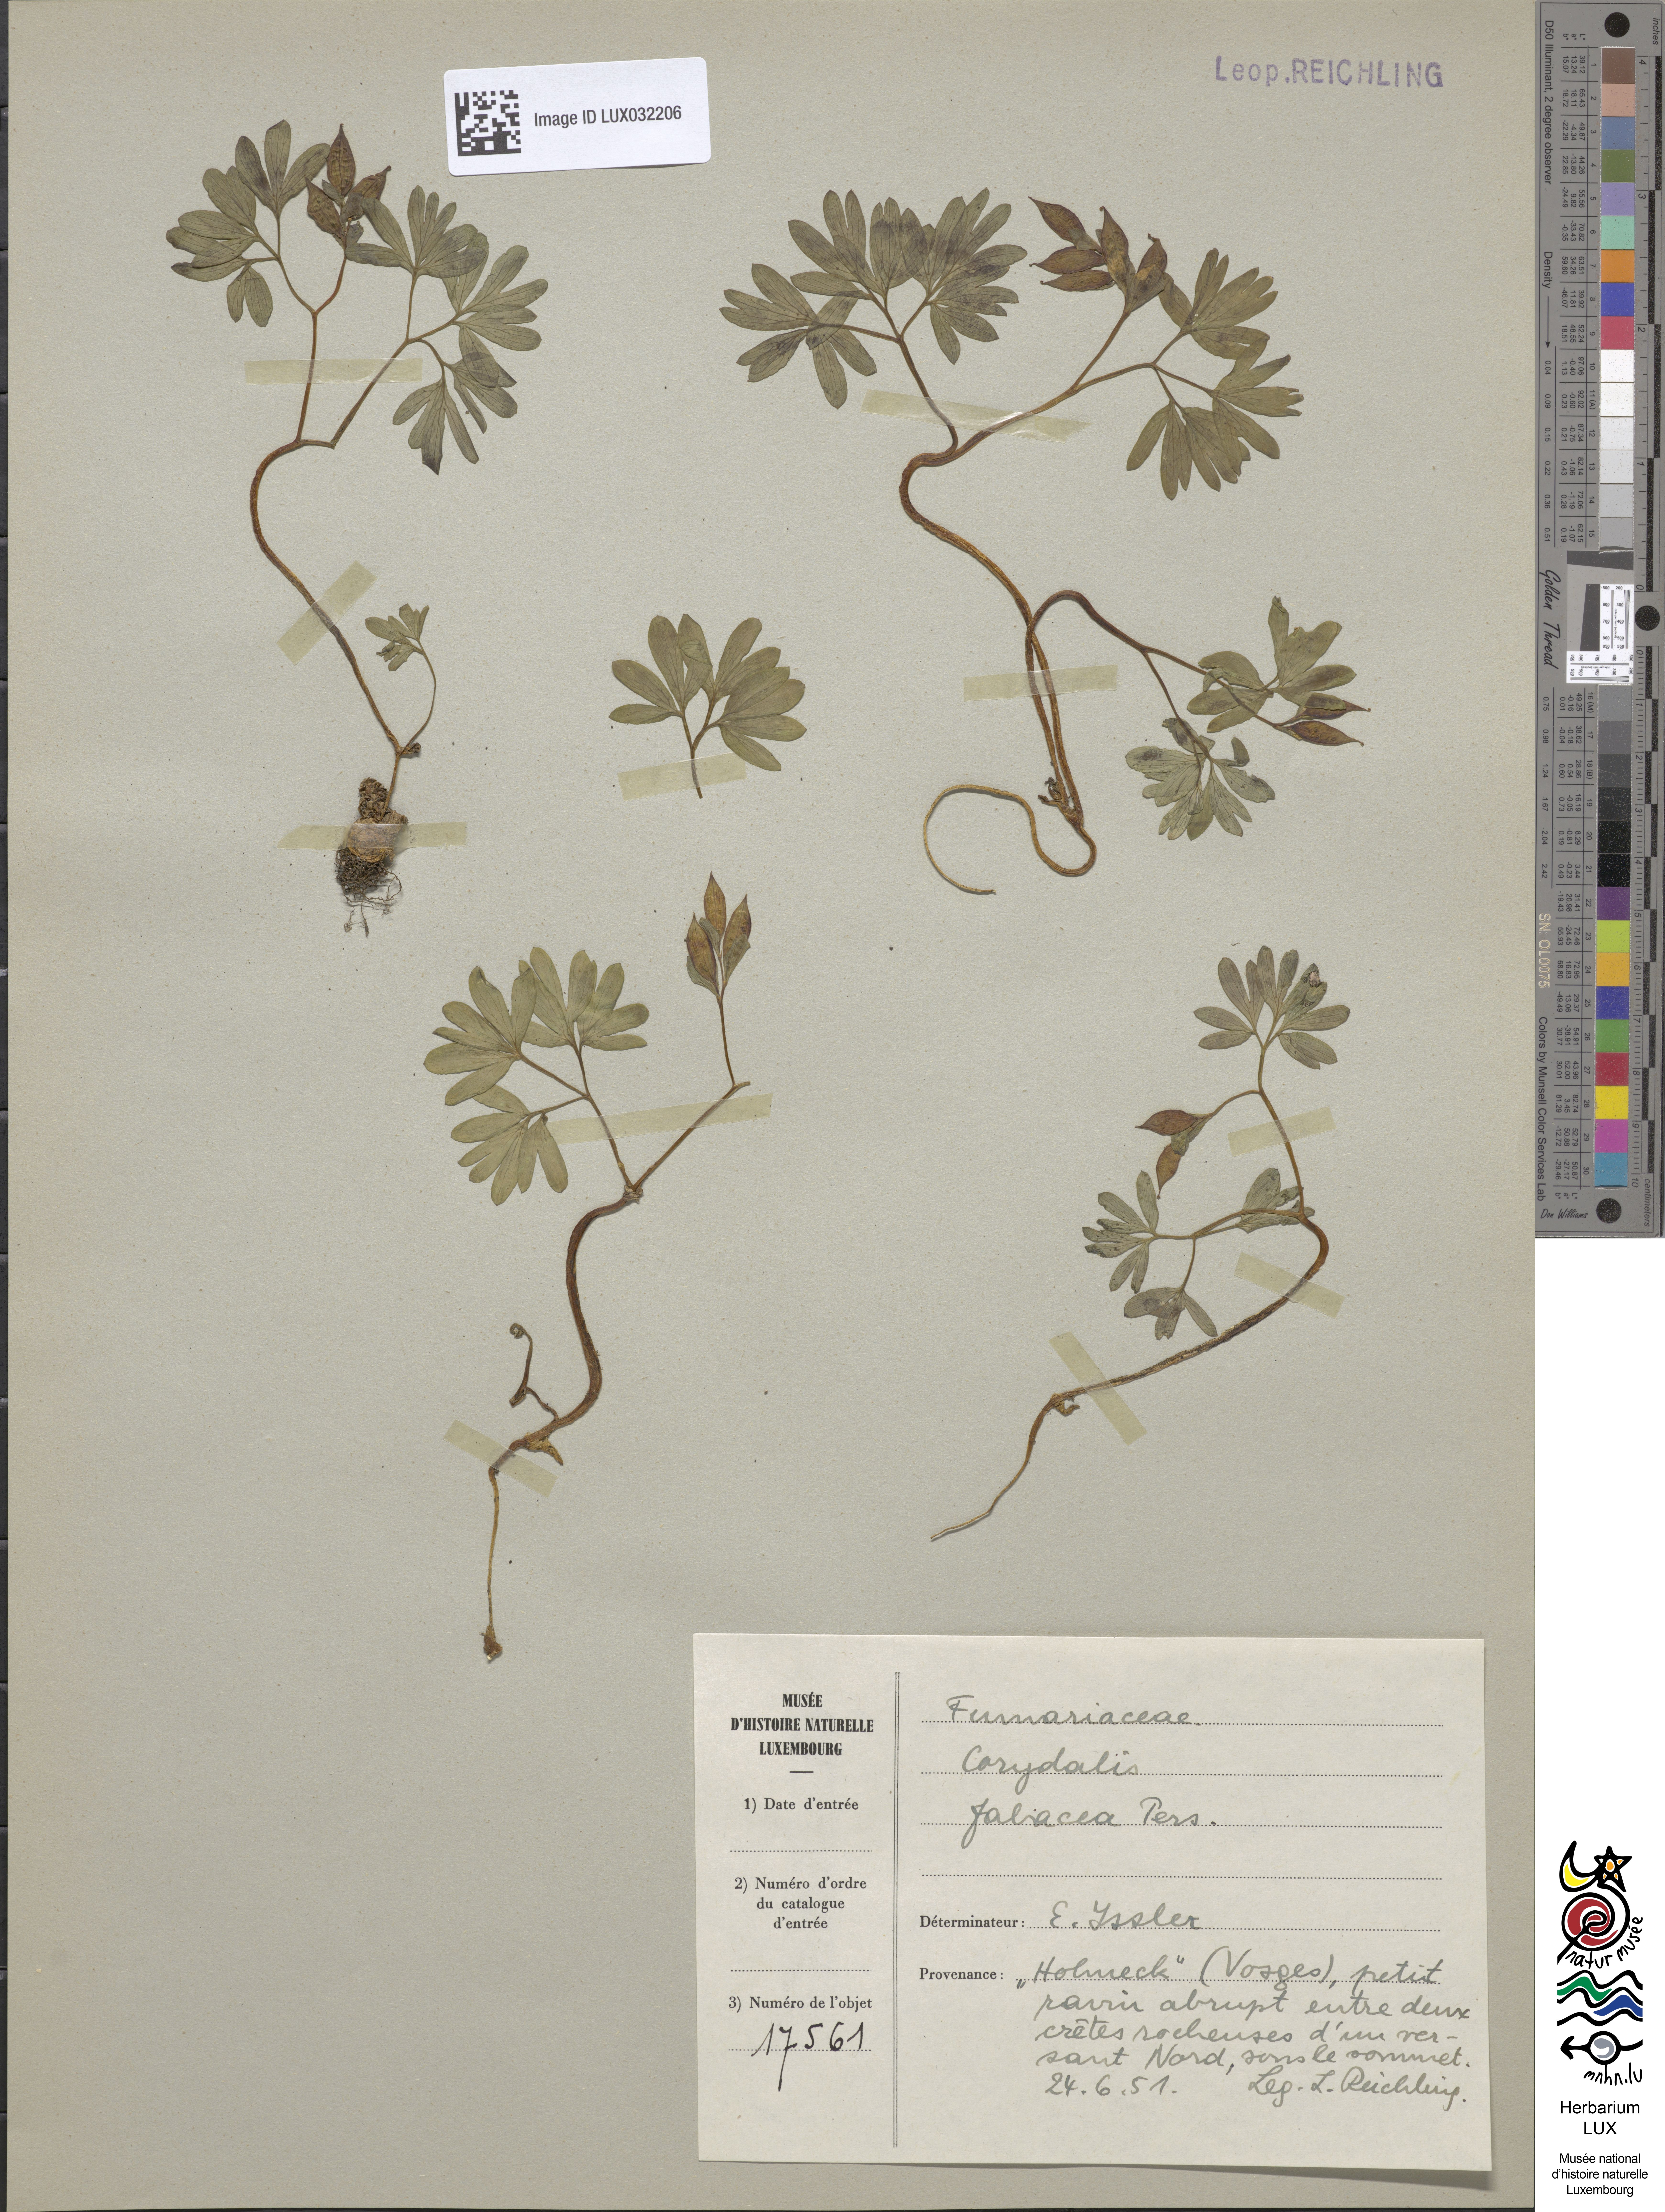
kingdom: Plantae
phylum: Tracheophyta
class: Magnoliopsida
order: Ranunculales
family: Papaveraceae
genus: Corydalis
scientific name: Corydalis intermedia
